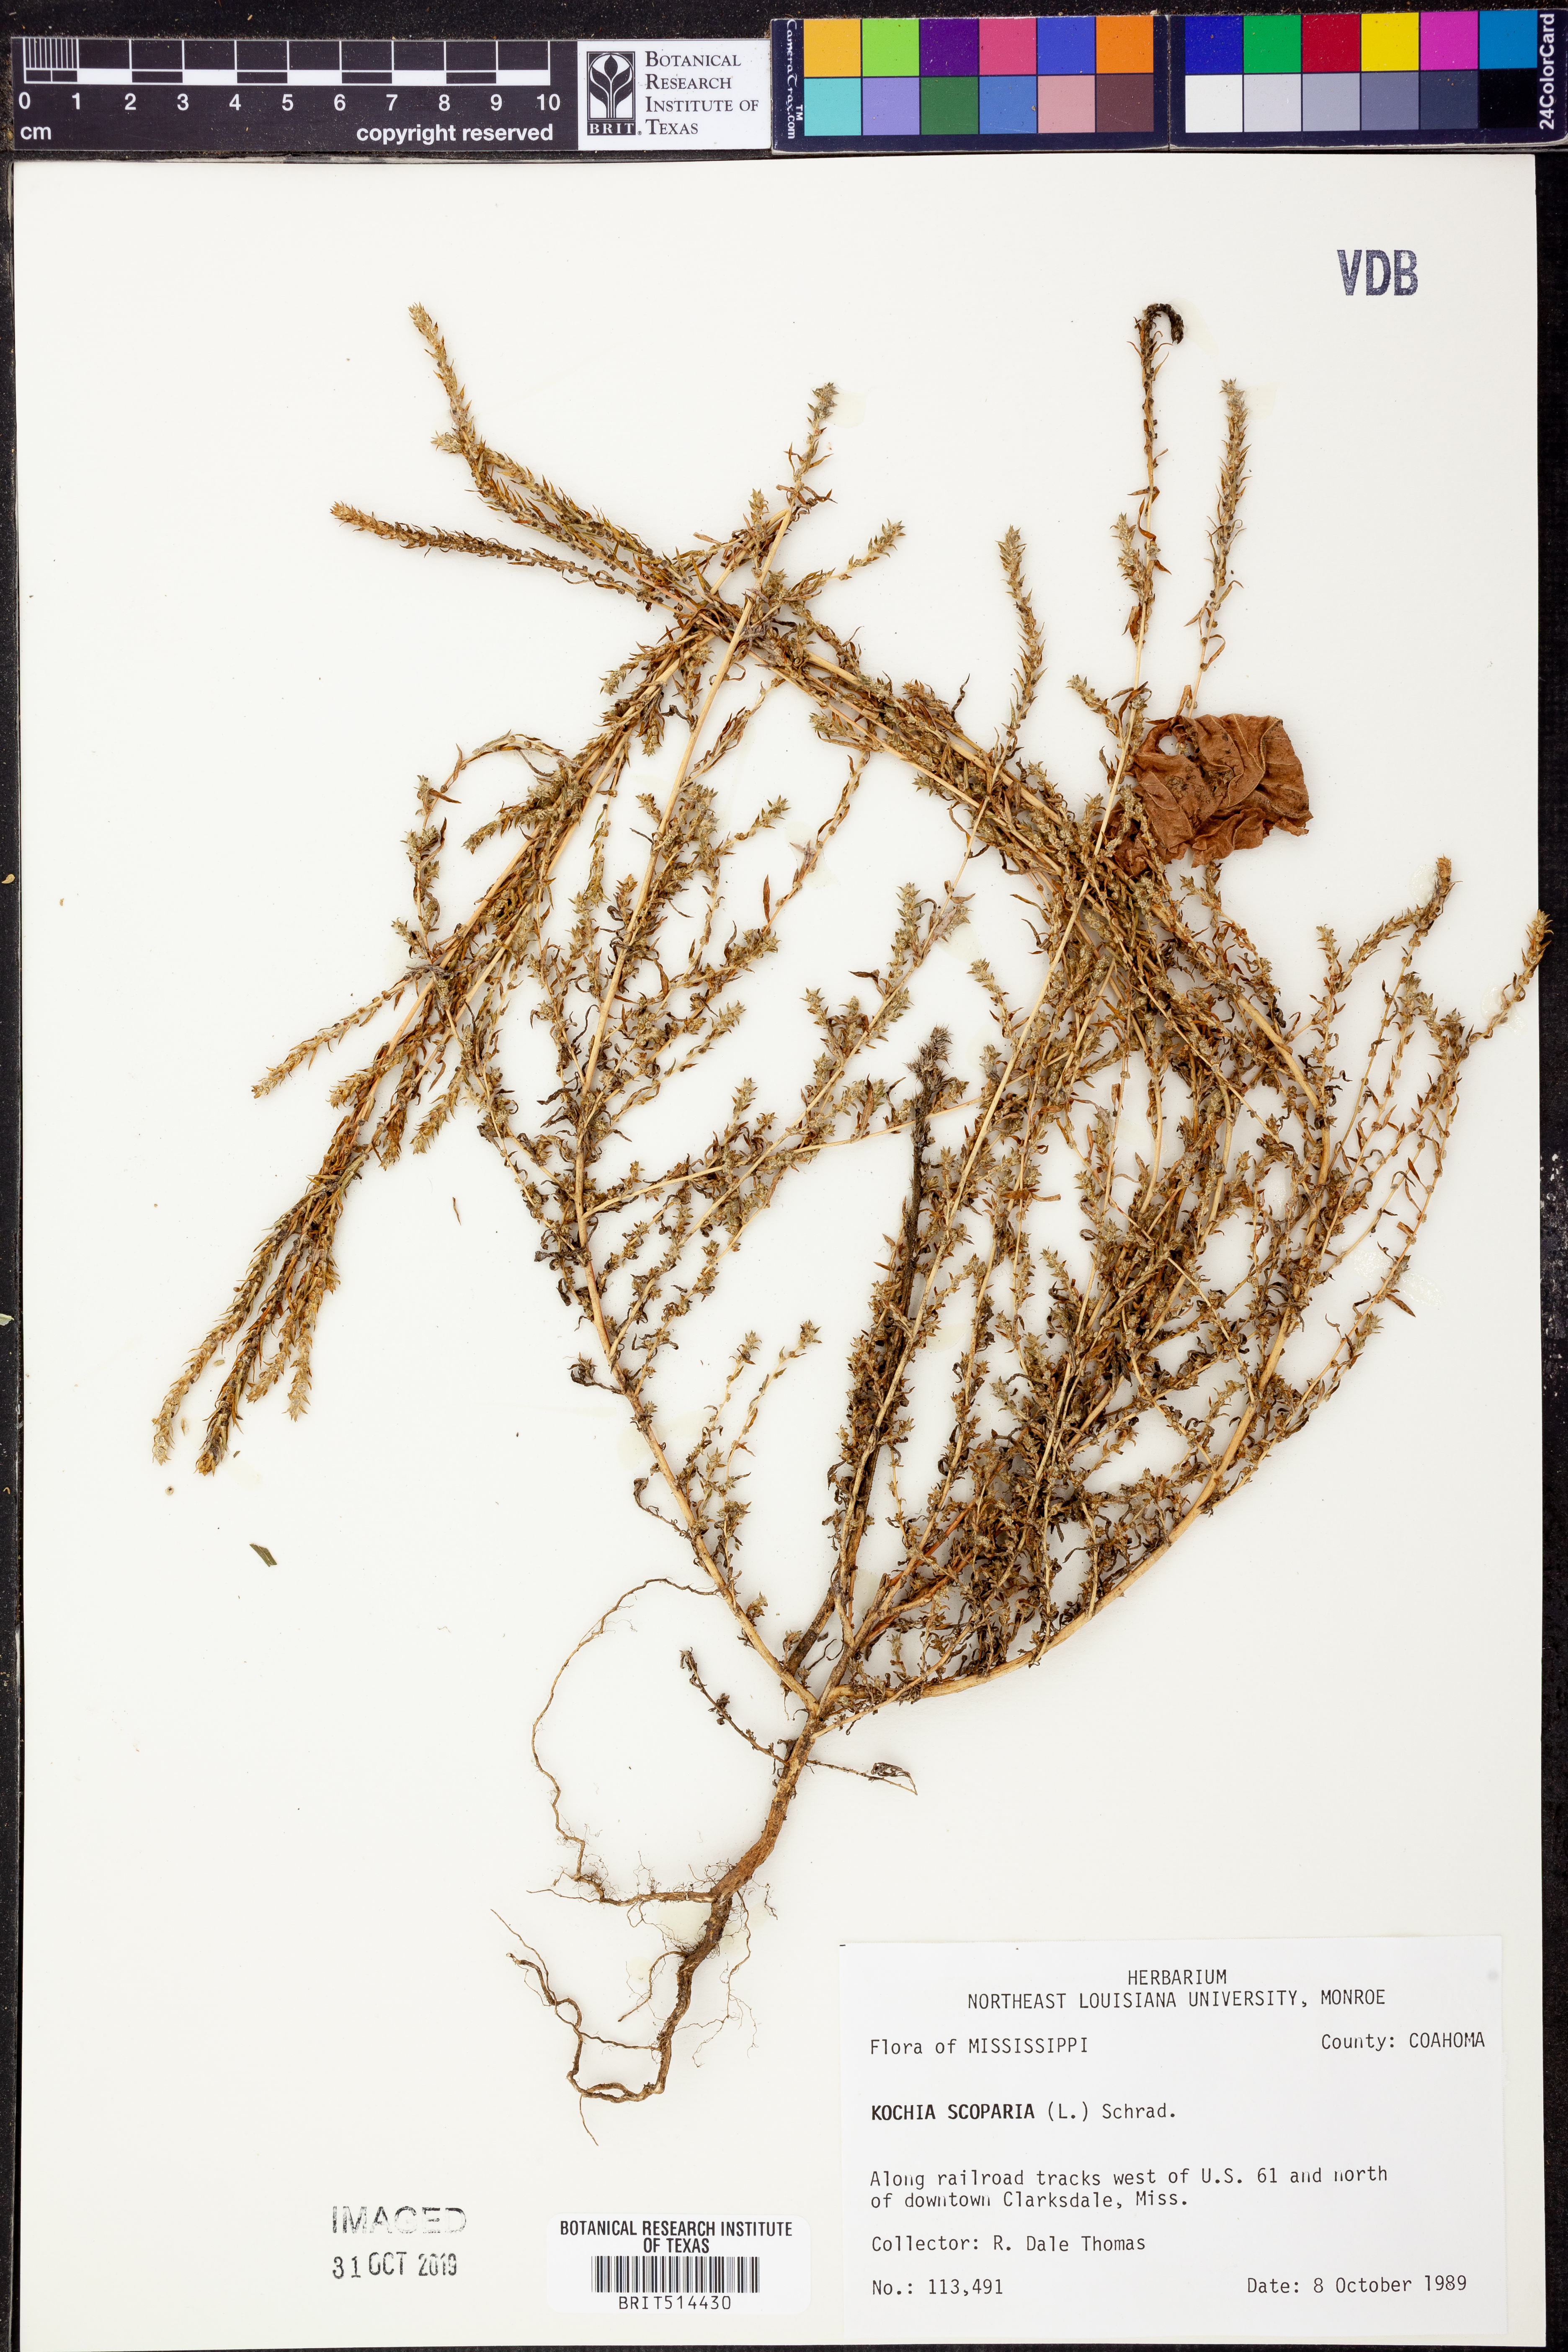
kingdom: Plantae
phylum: Tracheophyta
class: Magnoliopsida
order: Caryophyllales
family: Amaranthaceae
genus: Bassia
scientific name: Bassia scoparia
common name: Belvedere
